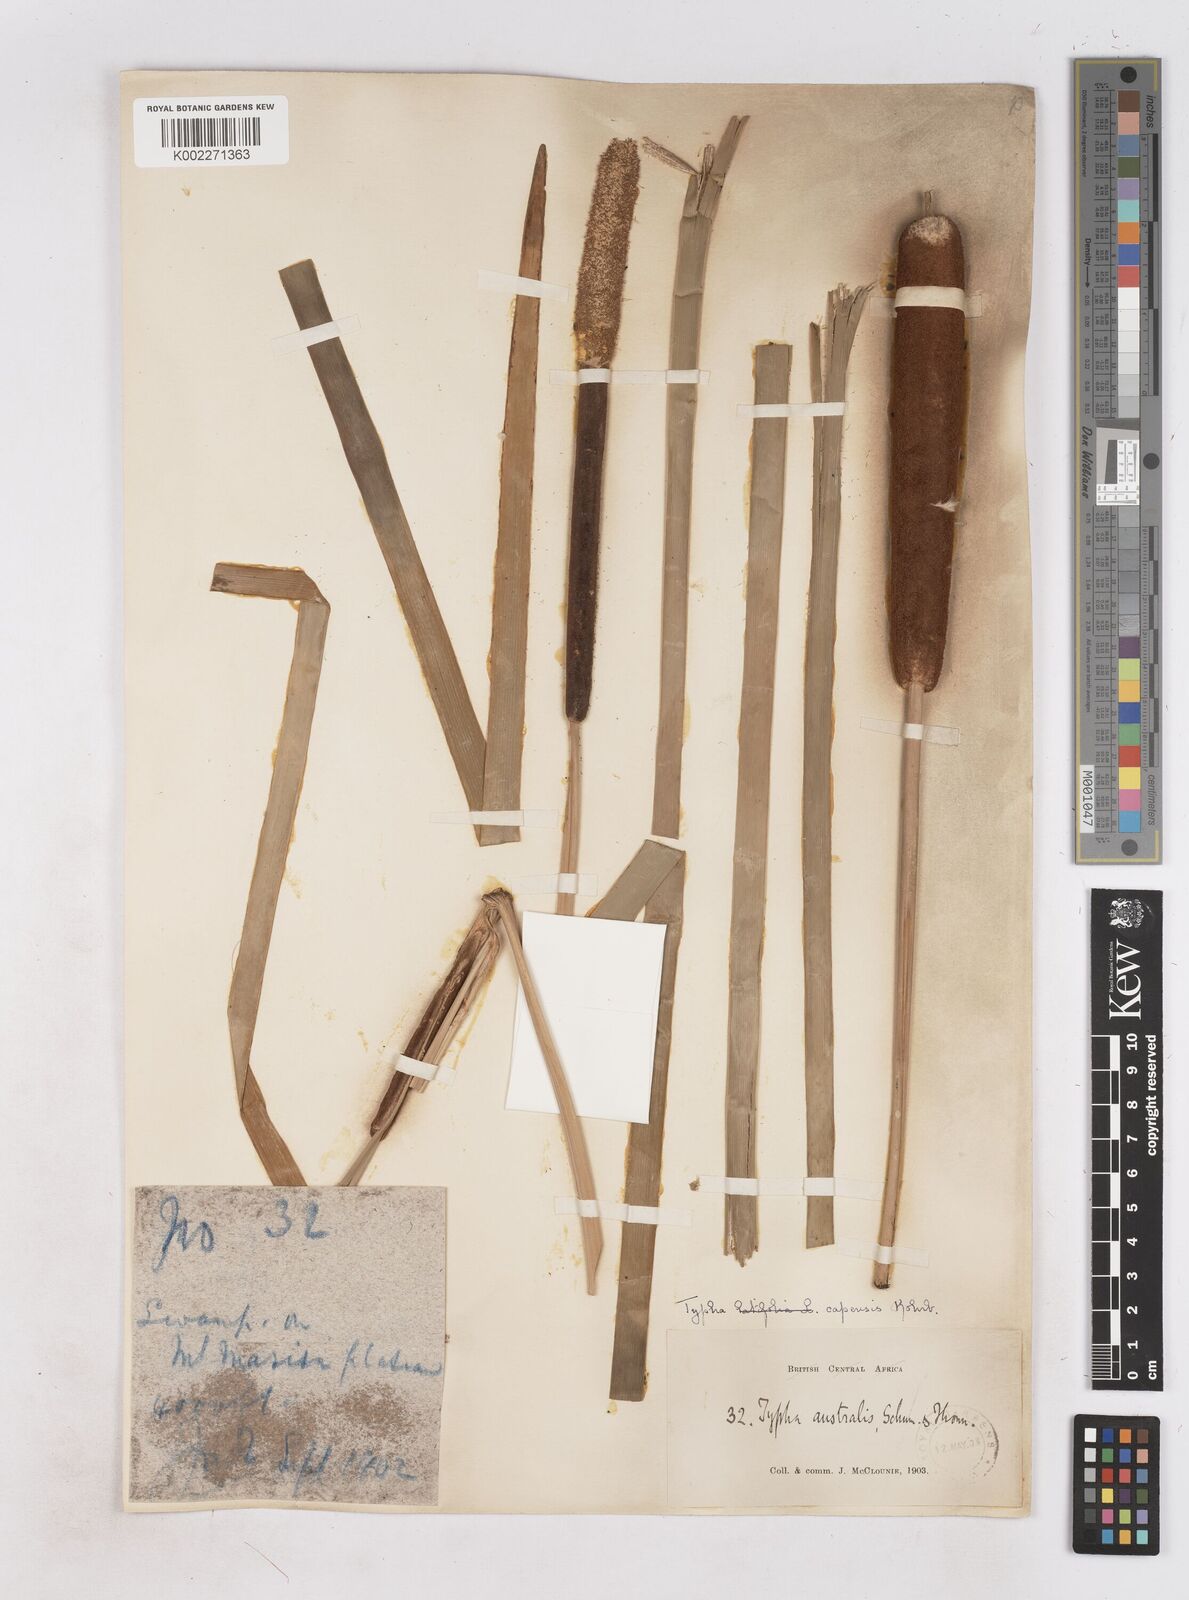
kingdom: Plantae
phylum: Tracheophyta
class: Liliopsida
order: Poales
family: Typhaceae
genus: Typha
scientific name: Typha capensis
